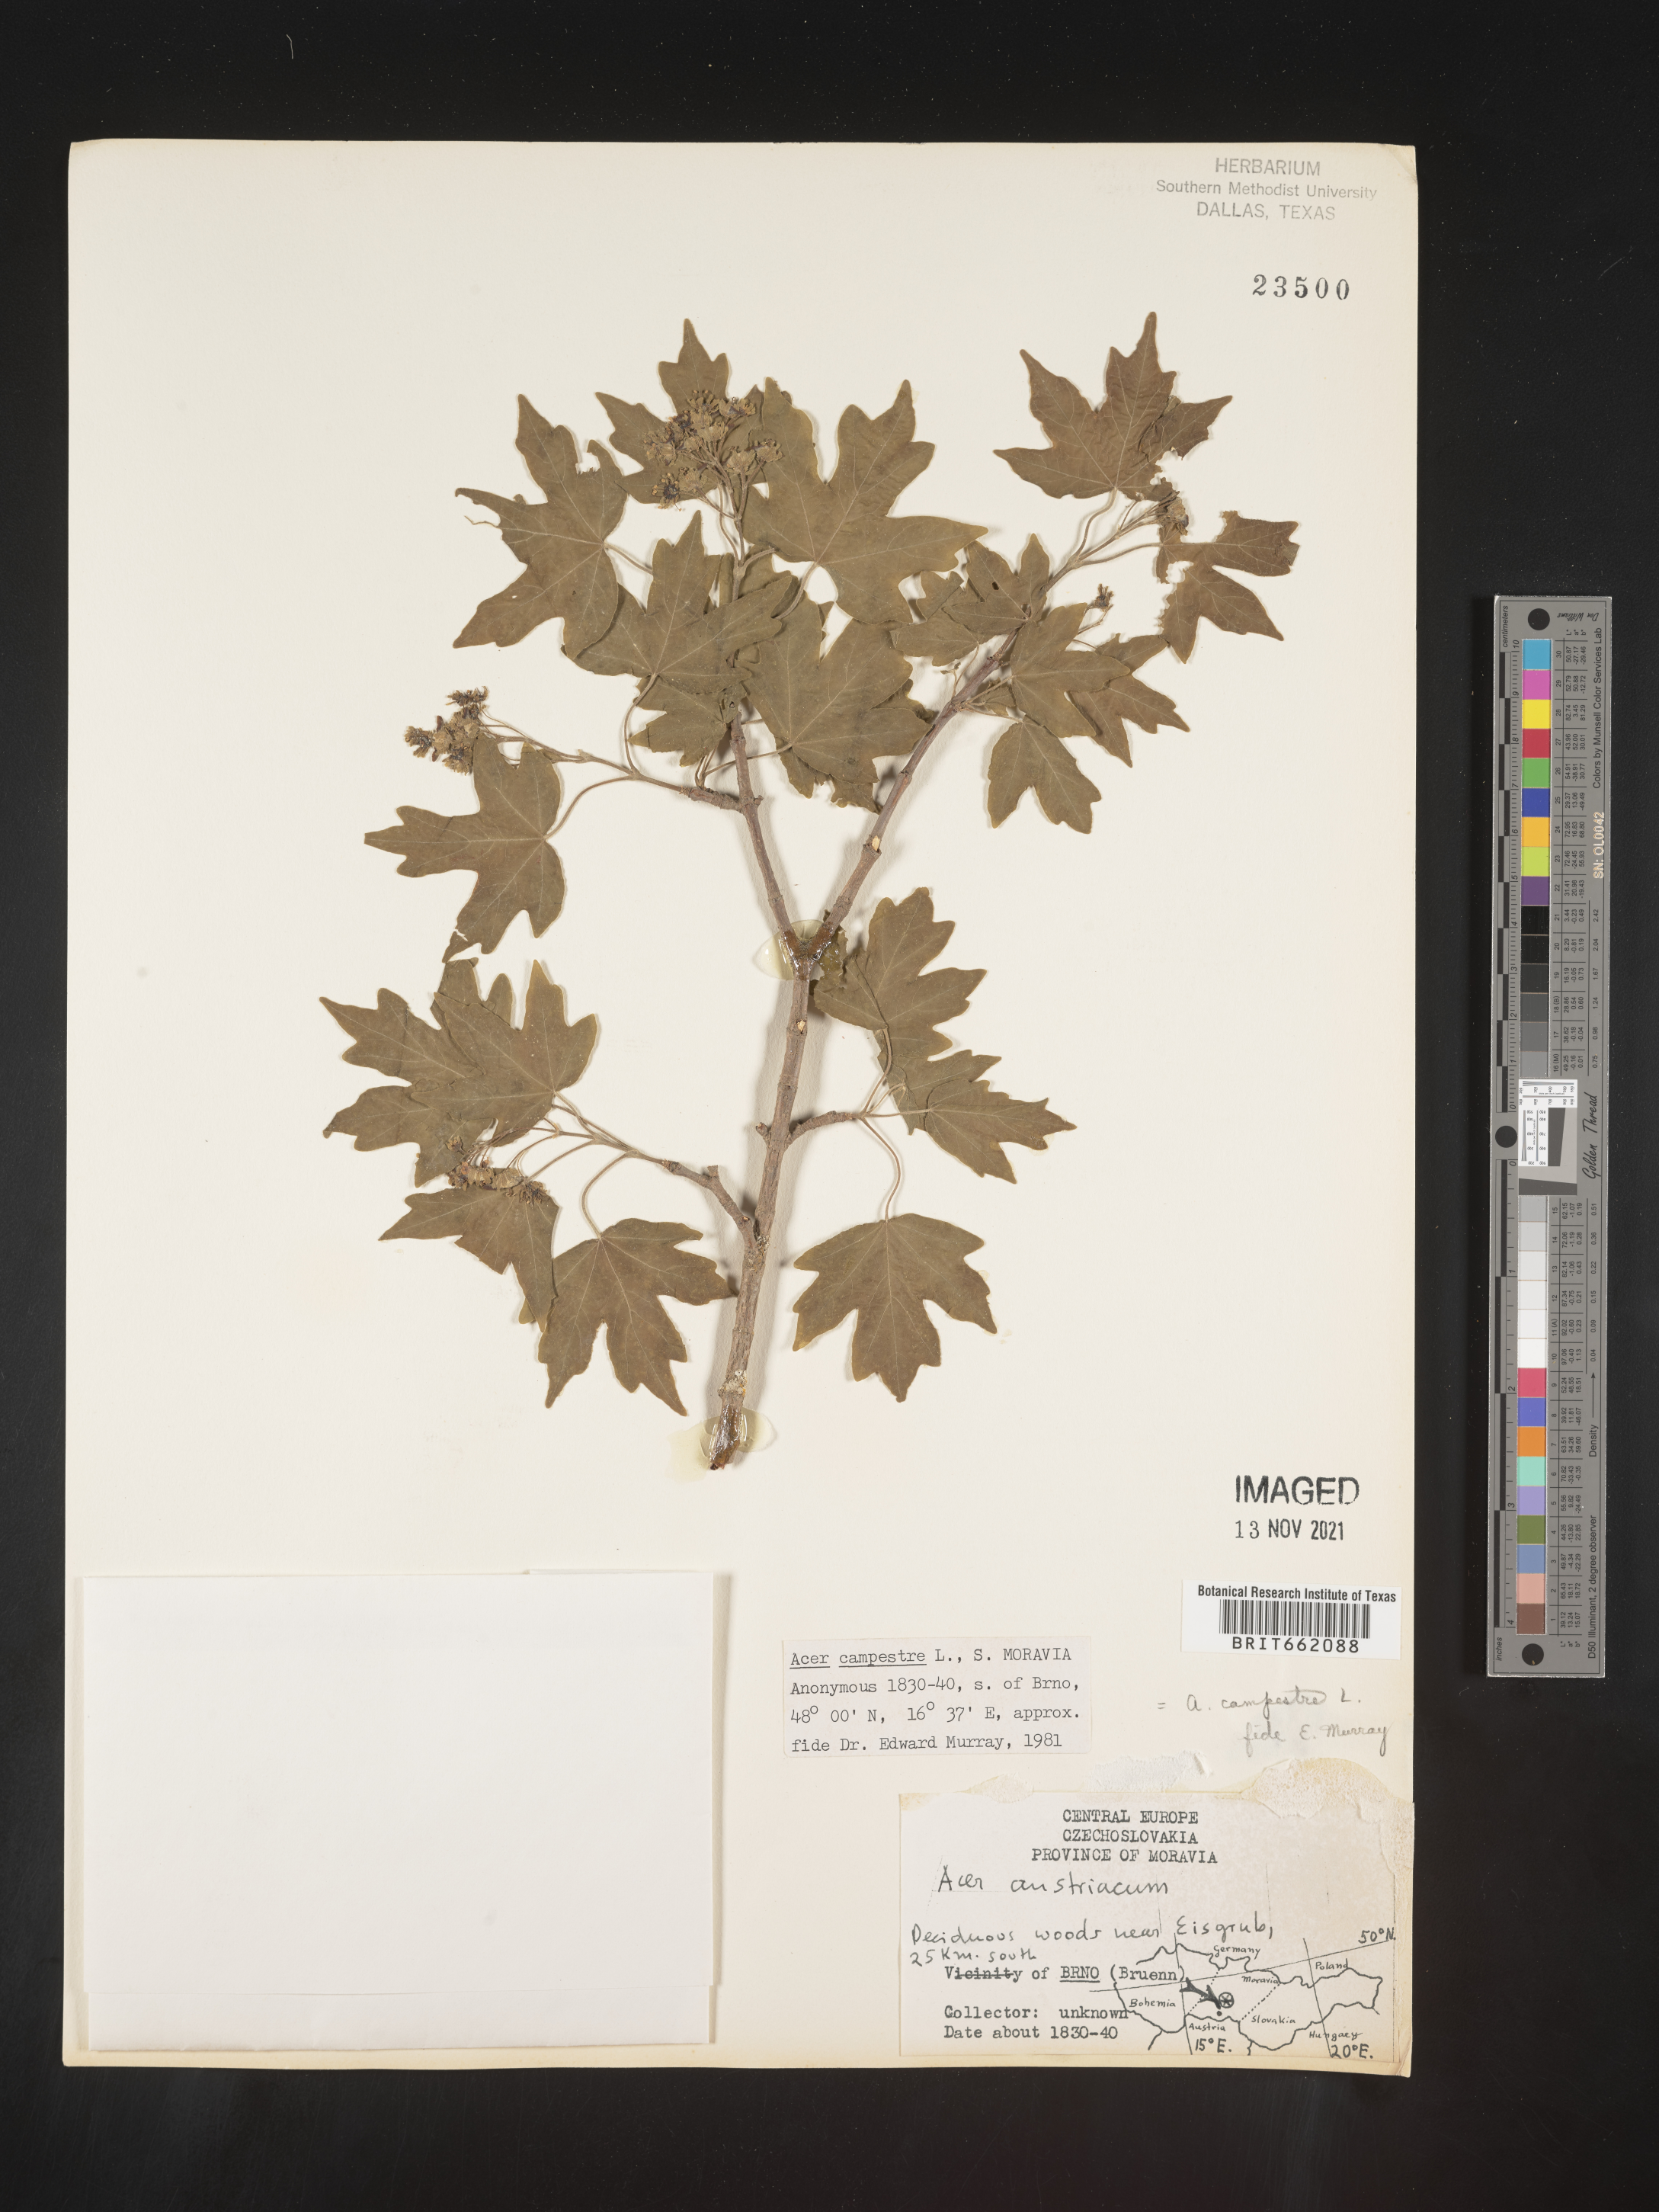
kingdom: Plantae
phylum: Tracheophyta
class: Magnoliopsida
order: Sapindales
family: Sapindaceae
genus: Acer
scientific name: Acer
